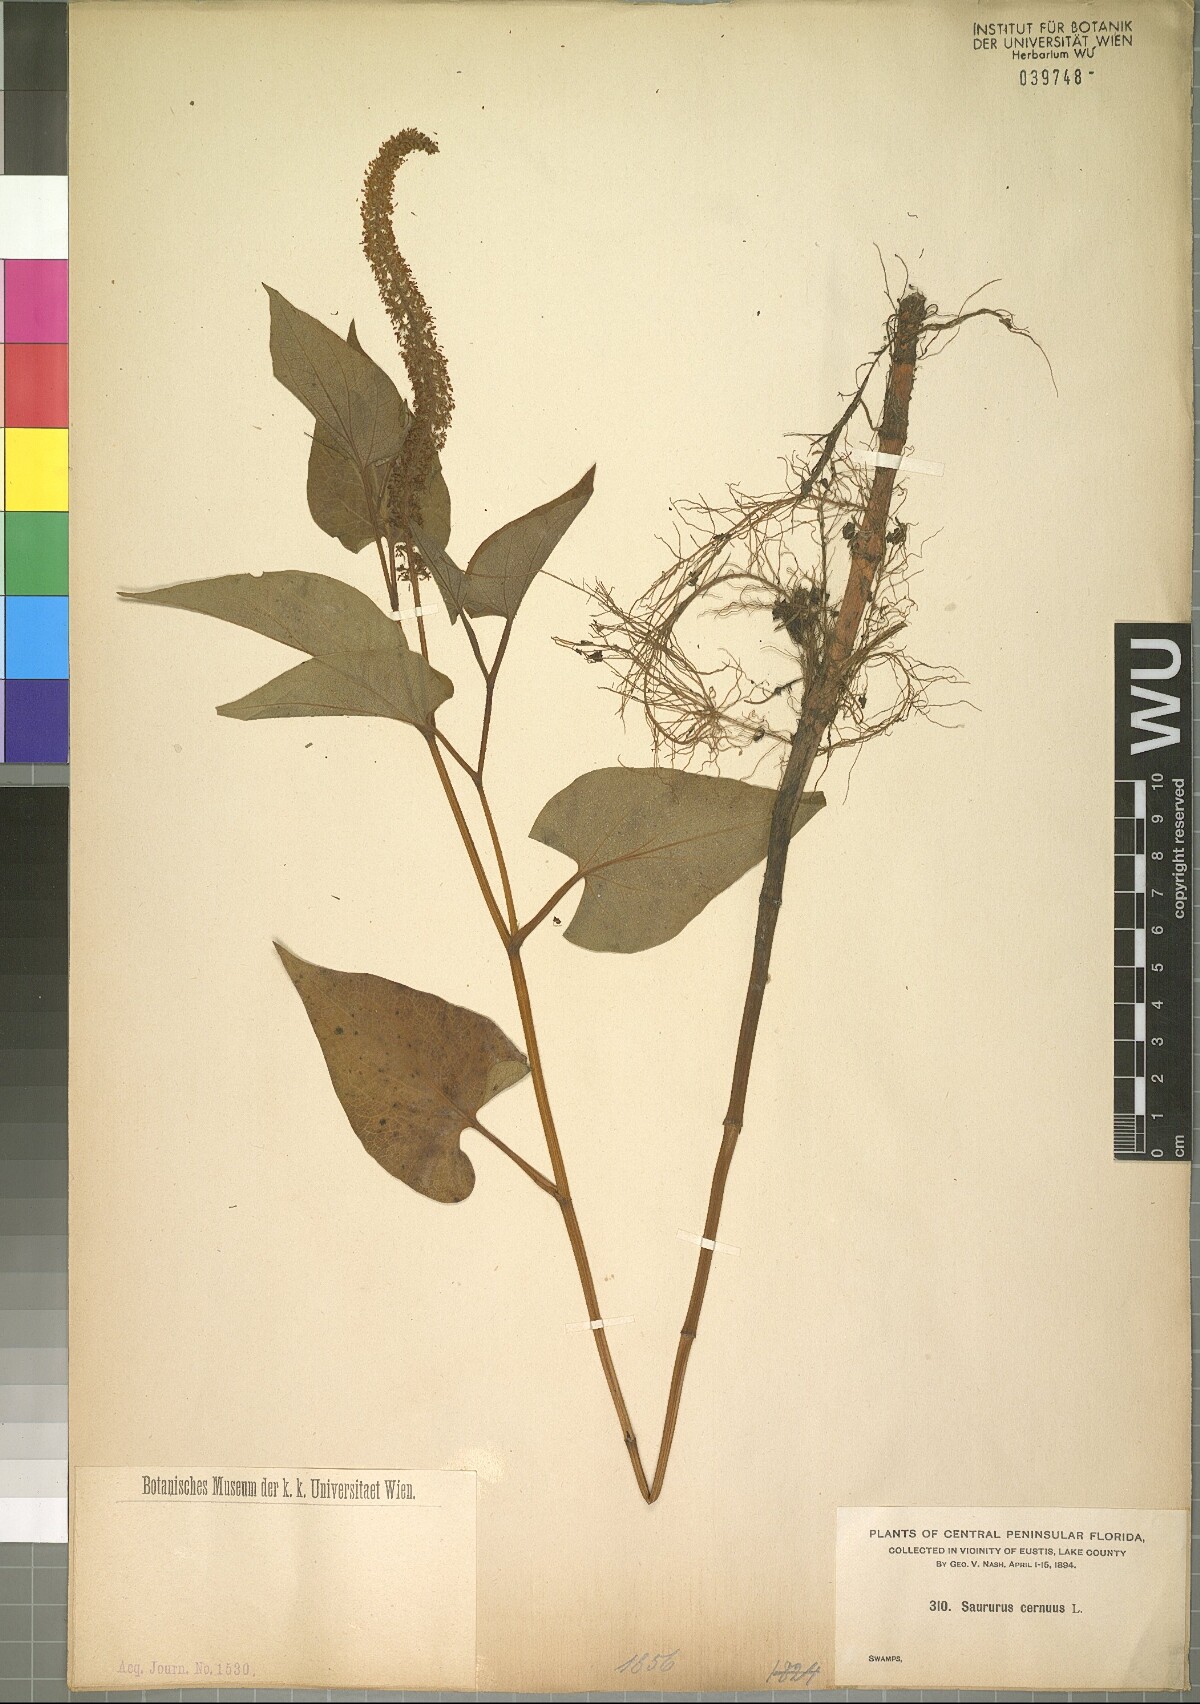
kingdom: Plantae
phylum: Tracheophyta
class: Magnoliopsida
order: Piperales
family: Saururaceae
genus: Saururus
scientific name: Saururus cernuus
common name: Lizard's-tail
